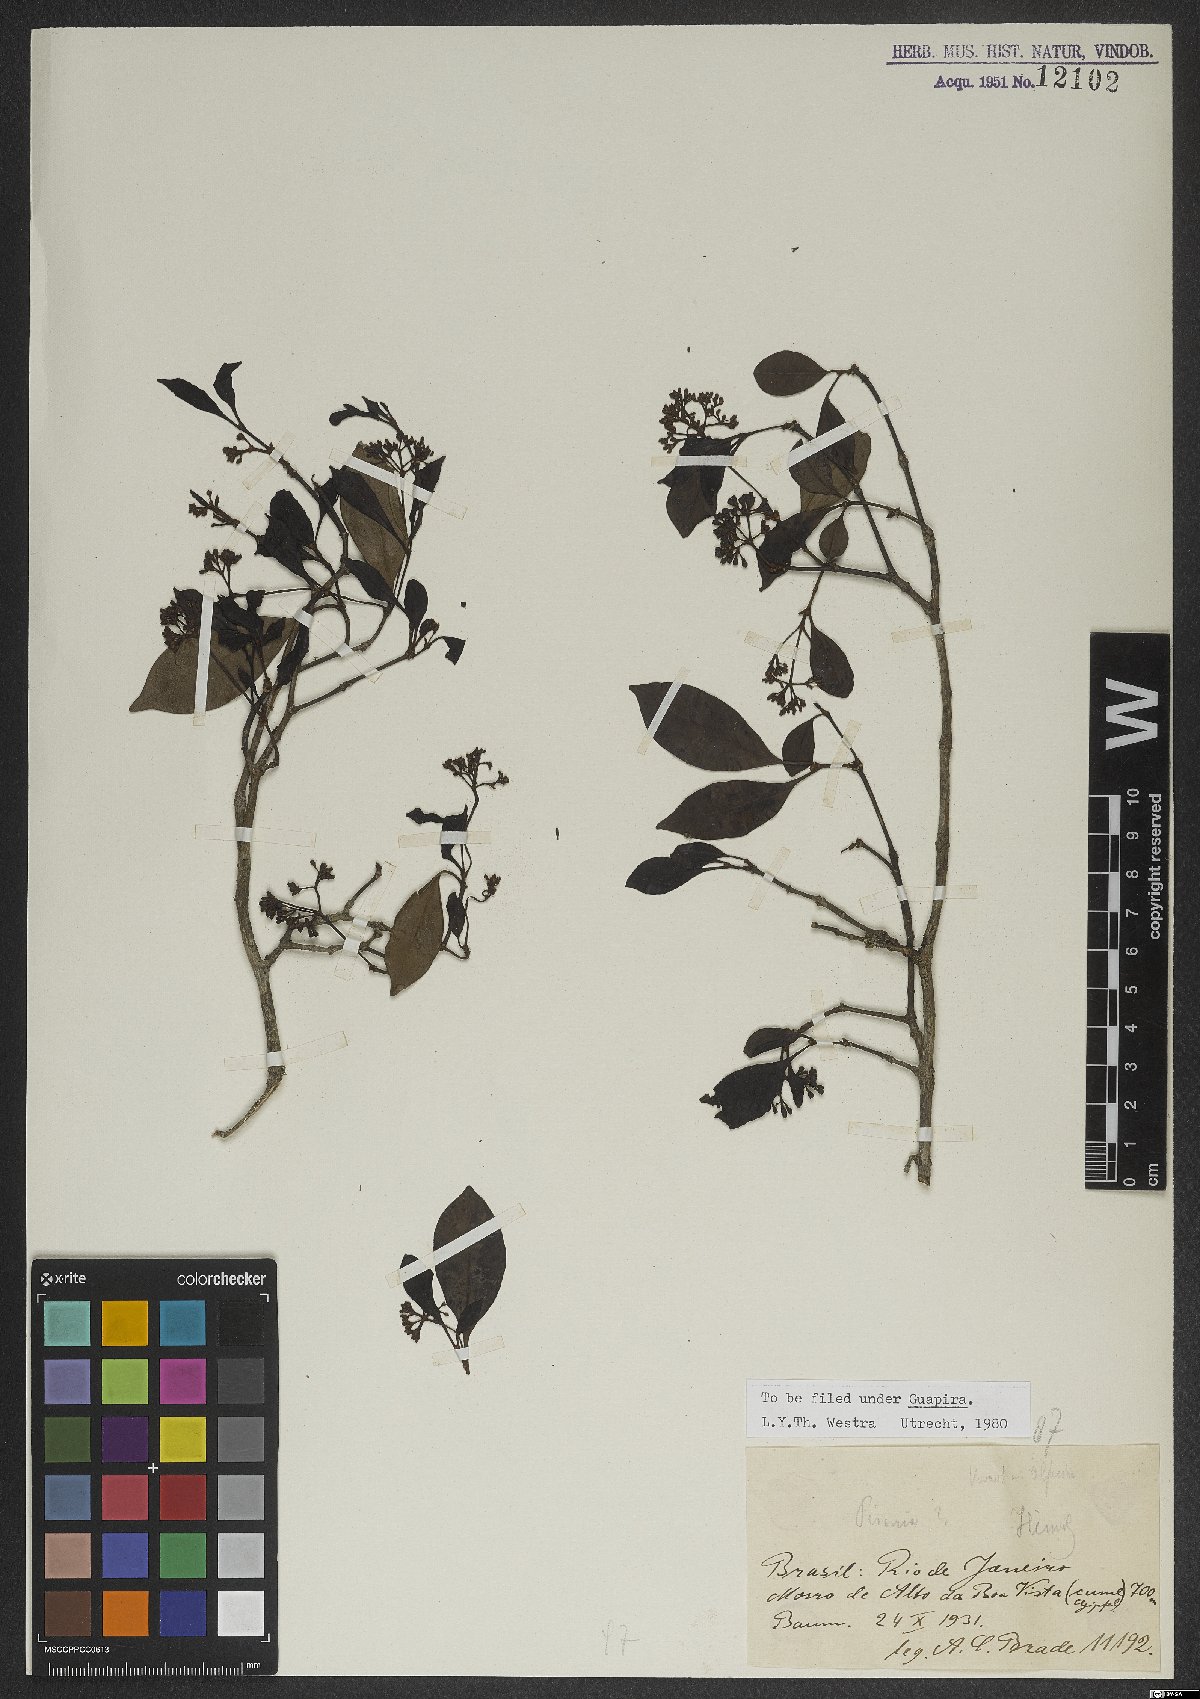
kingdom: Plantae
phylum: Tracheophyta
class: Magnoliopsida
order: Caryophyllales
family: Nyctaginaceae
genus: Guapira
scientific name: Guapira
